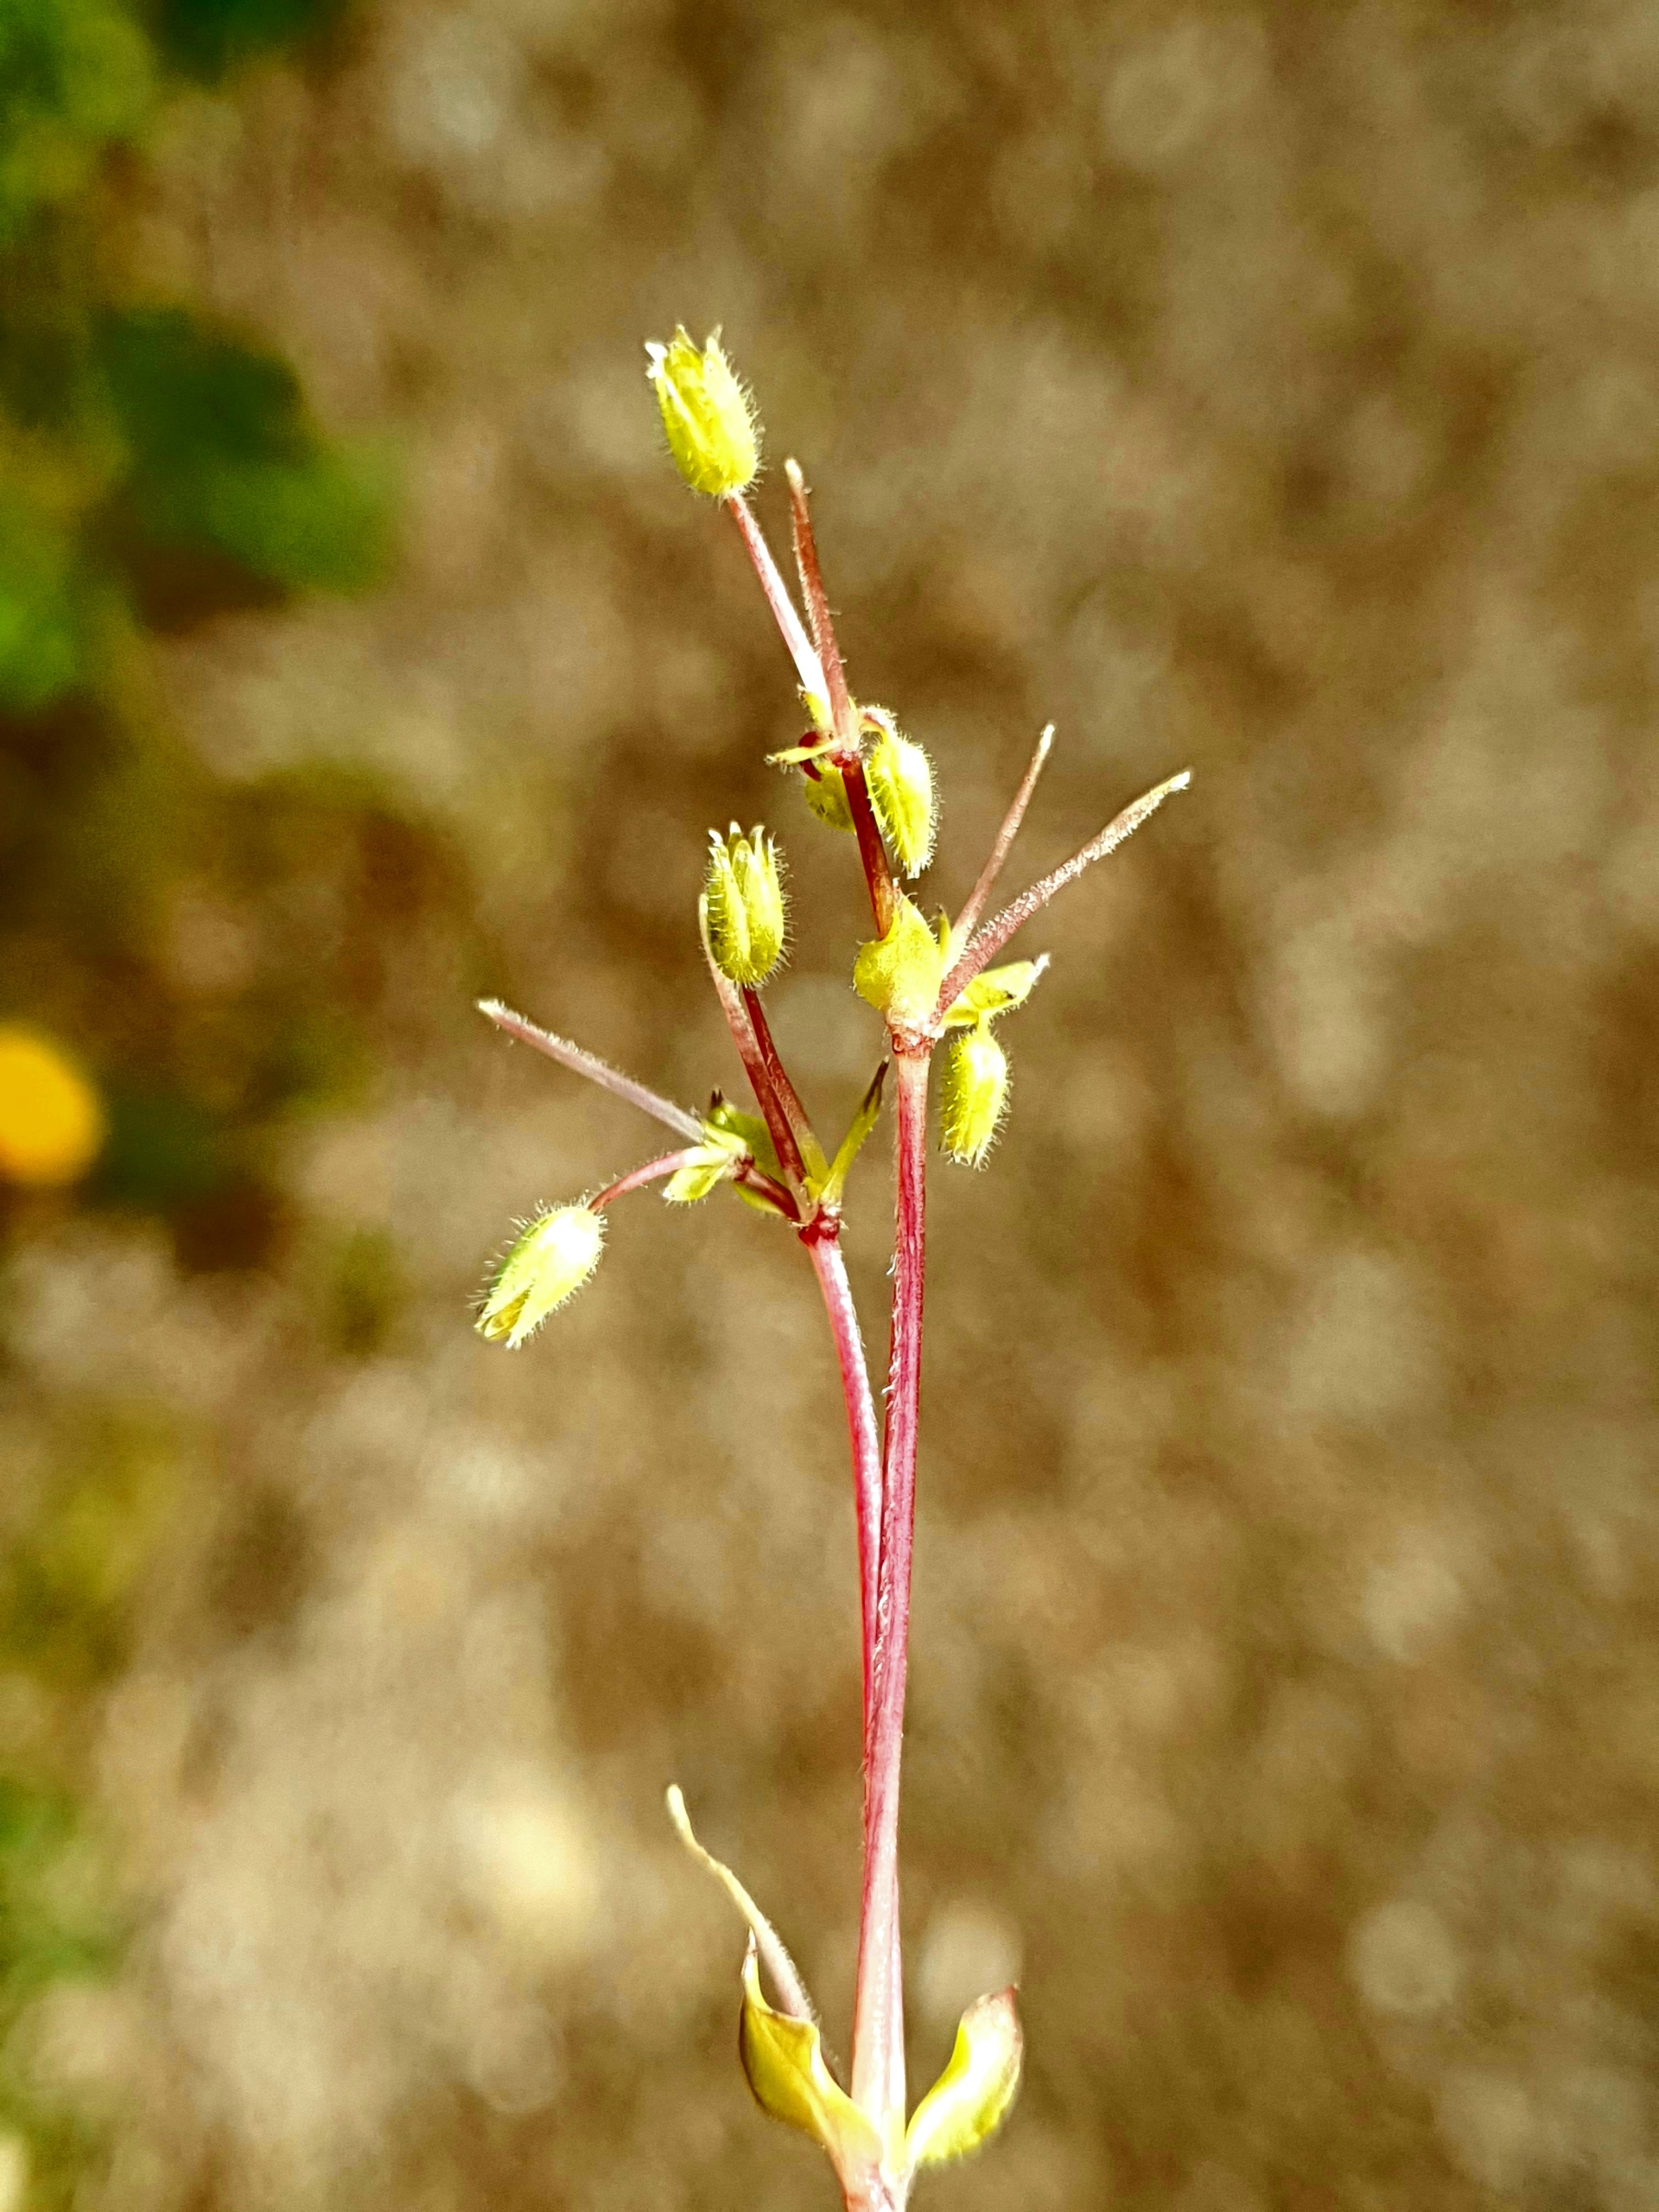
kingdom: Plantae
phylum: Tracheophyta
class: Magnoliopsida
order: Caryophyllales
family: Caryophyllaceae
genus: Stellaria
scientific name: Stellaria apetala
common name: Bleg fuglegræs
